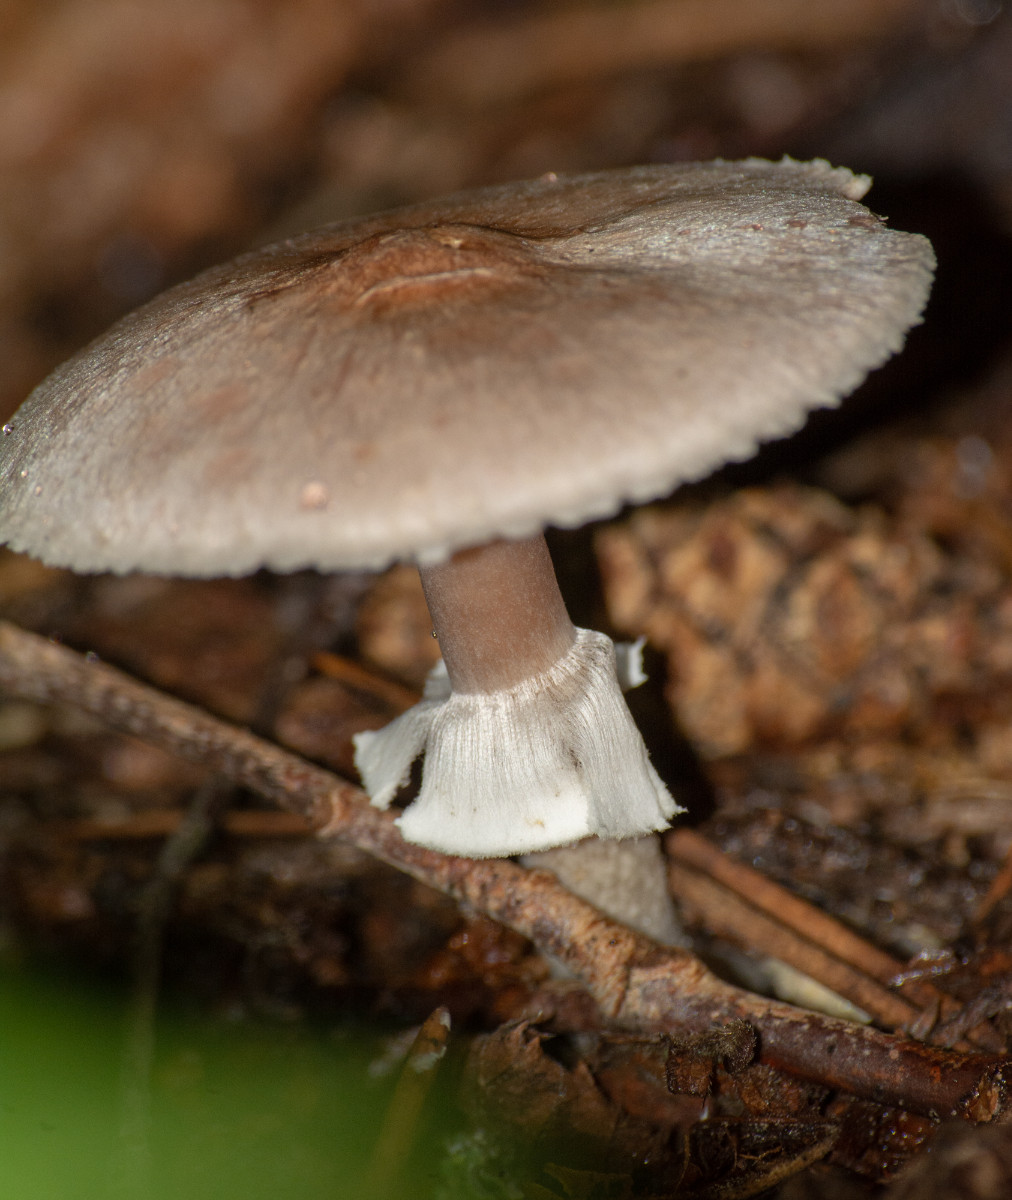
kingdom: Fungi
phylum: Basidiomycota
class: Agaricomycetes
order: Agaricales
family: Agaricaceae
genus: Agaricus
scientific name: Agaricus
